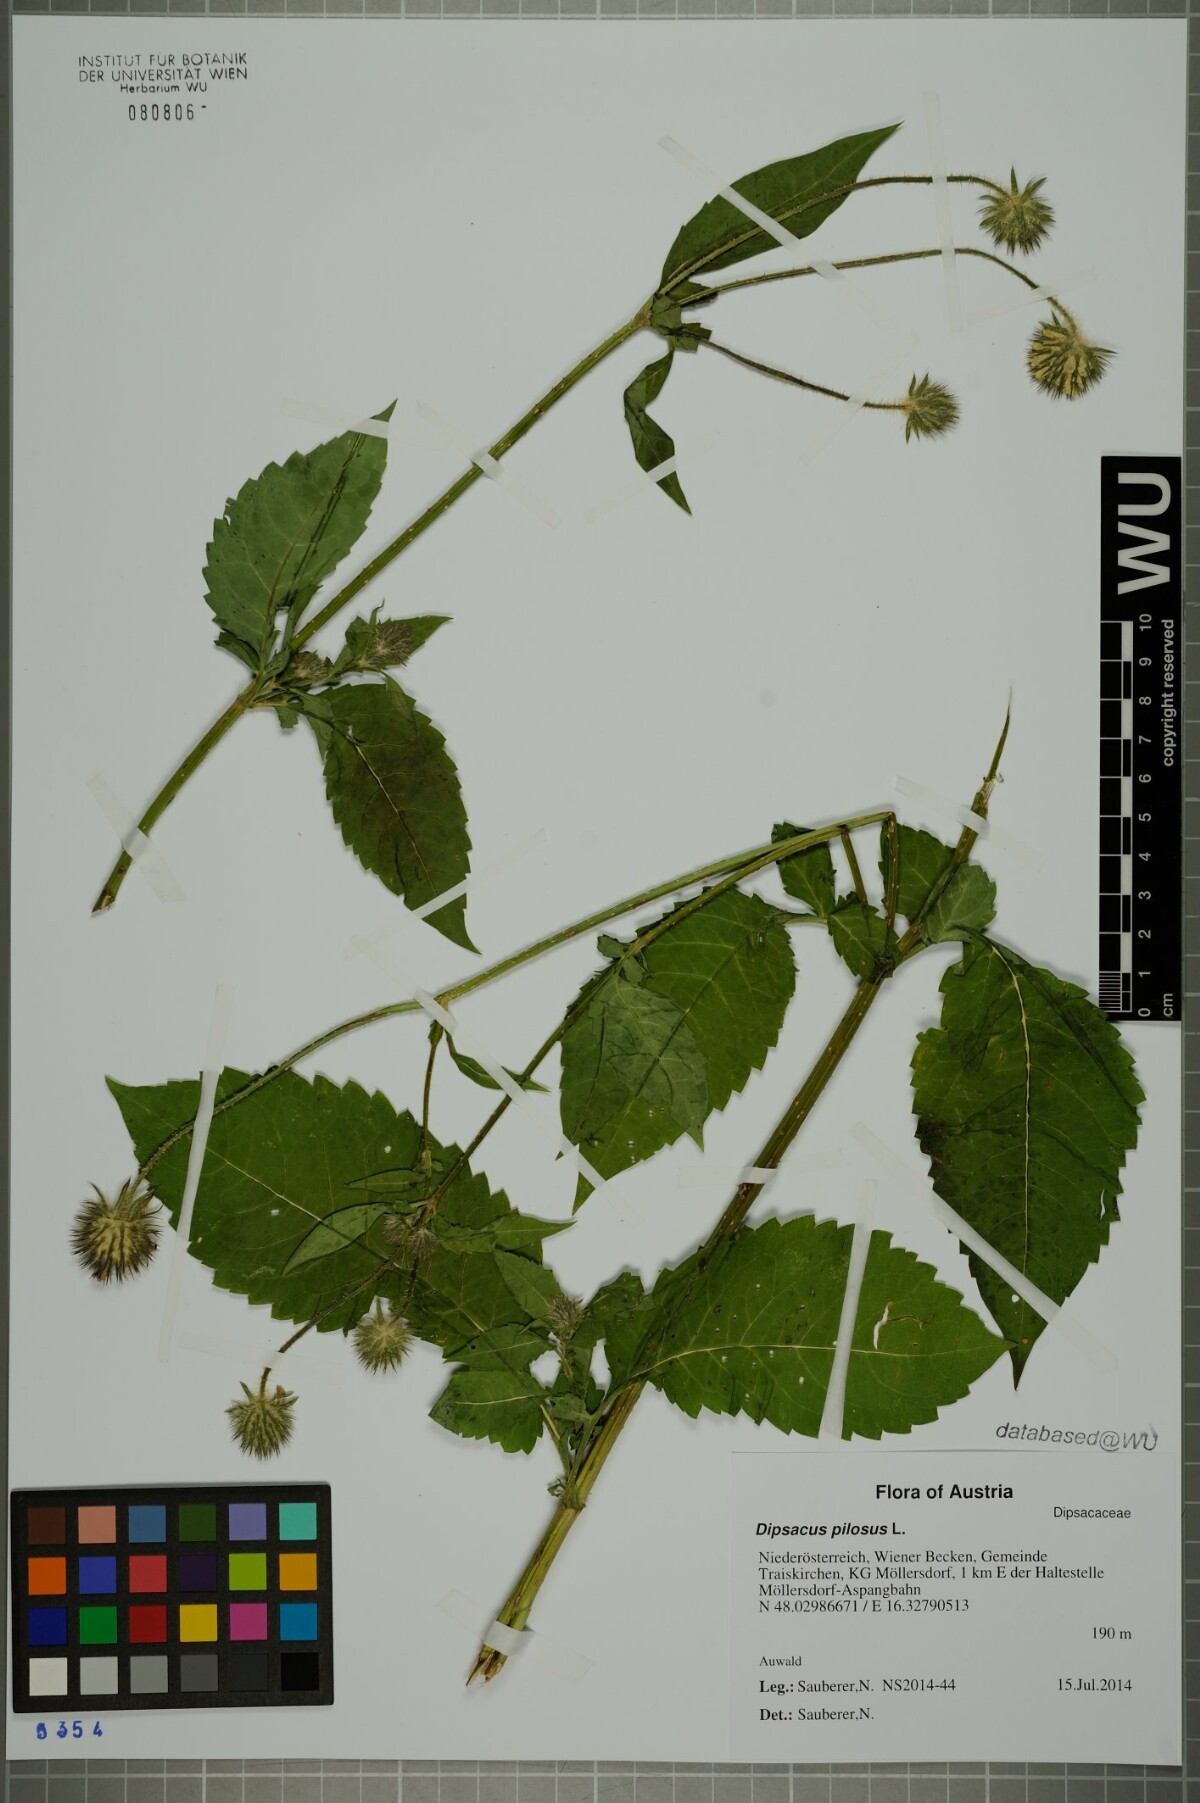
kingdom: Plantae
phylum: Tracheophyta
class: Magnoliopsida
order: Dipsacales
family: Caprifoliaceae
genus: Dipsacus
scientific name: Dipsacus pilosus
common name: Small teasel
